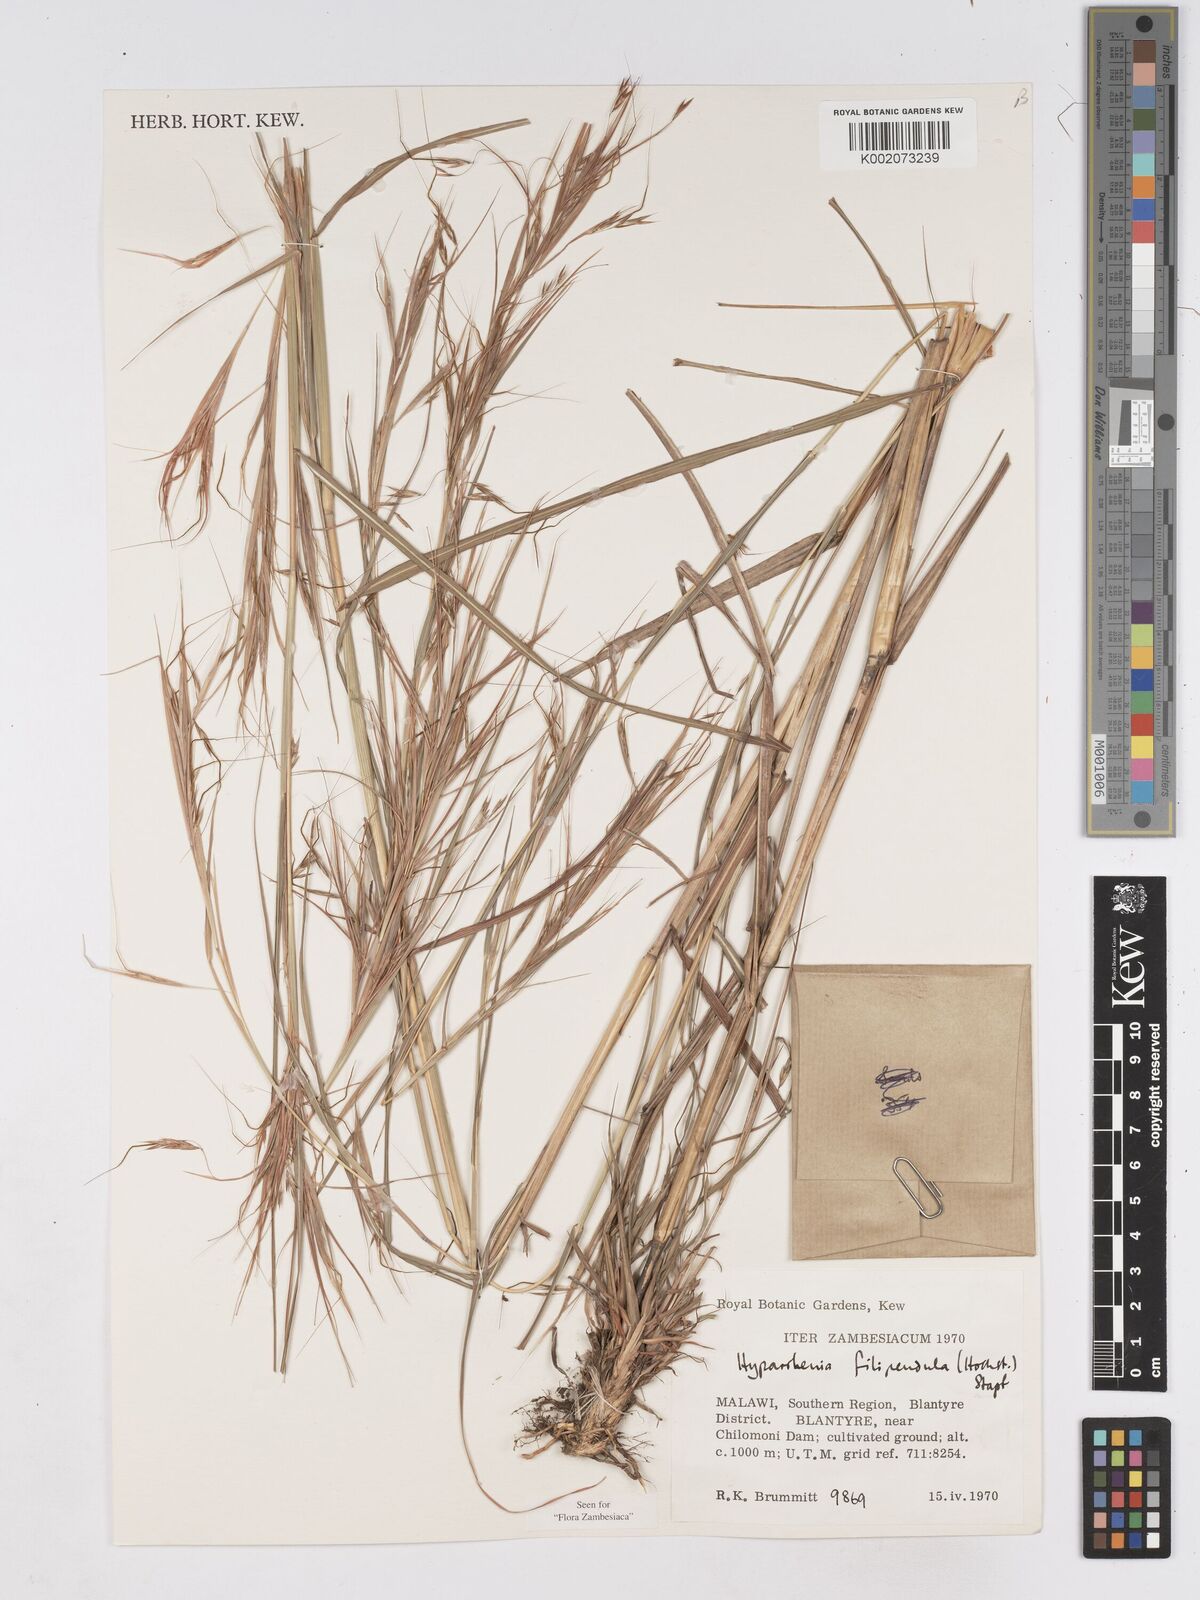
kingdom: Plantae
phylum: Tracheophyta
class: Liliopsida
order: Poales
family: Poaceae
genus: Hyparrhenia
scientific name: Hyparrhenia filipendula
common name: Tambookie grass
